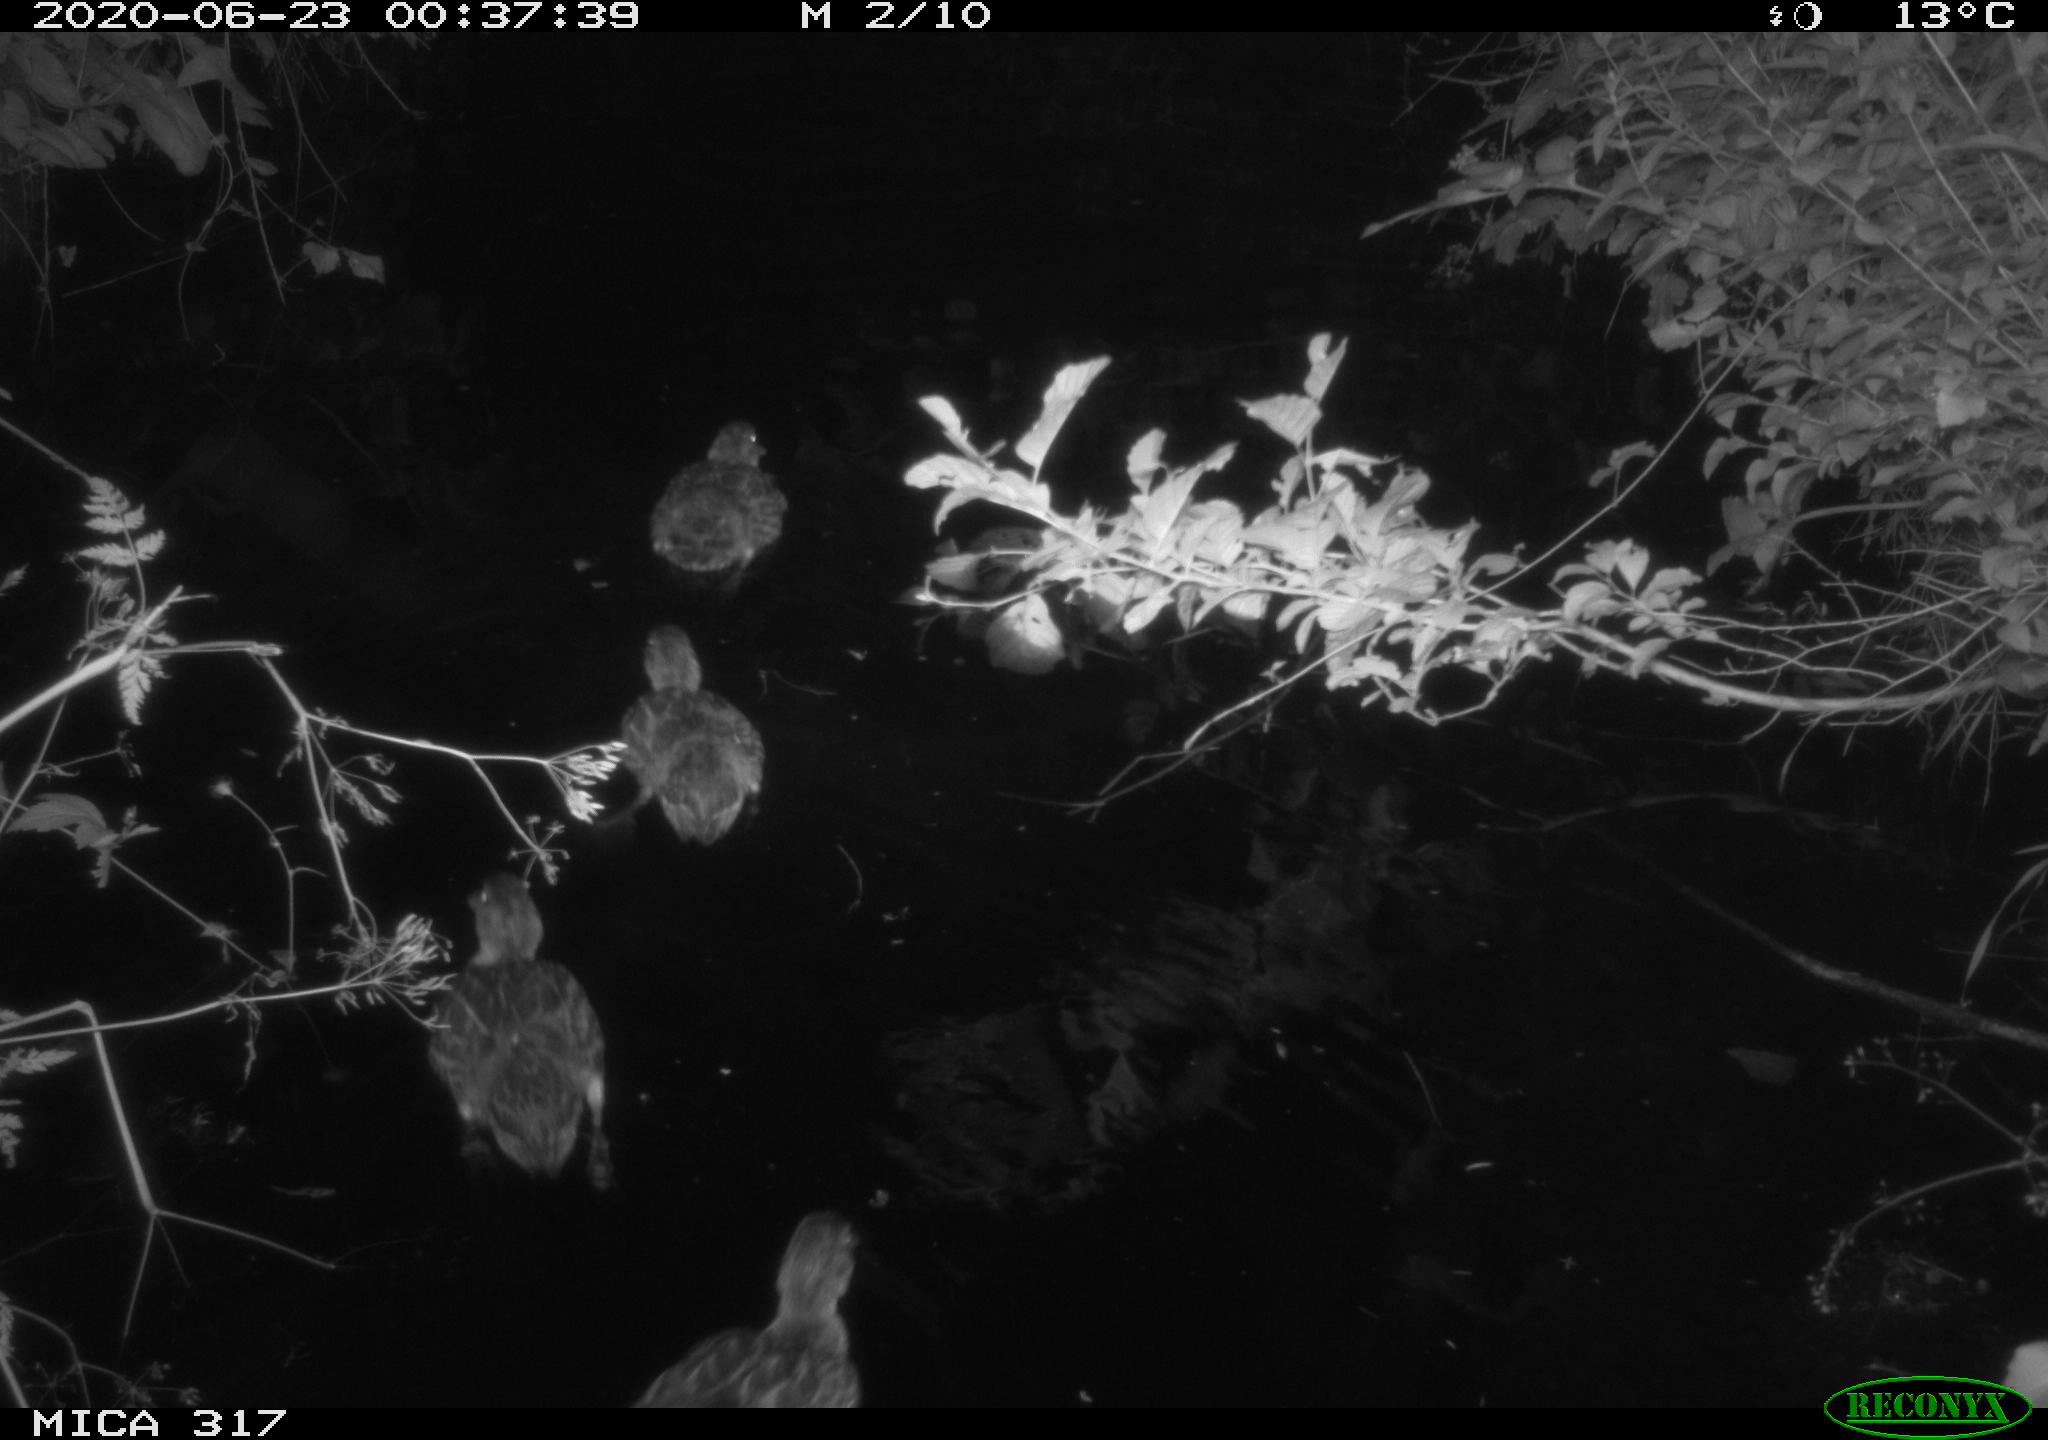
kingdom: Animalia
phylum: Chordata
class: Aves
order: Anseriformes
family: Anatidae
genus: Anas
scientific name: Anas platyrhynchos
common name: Mallard
